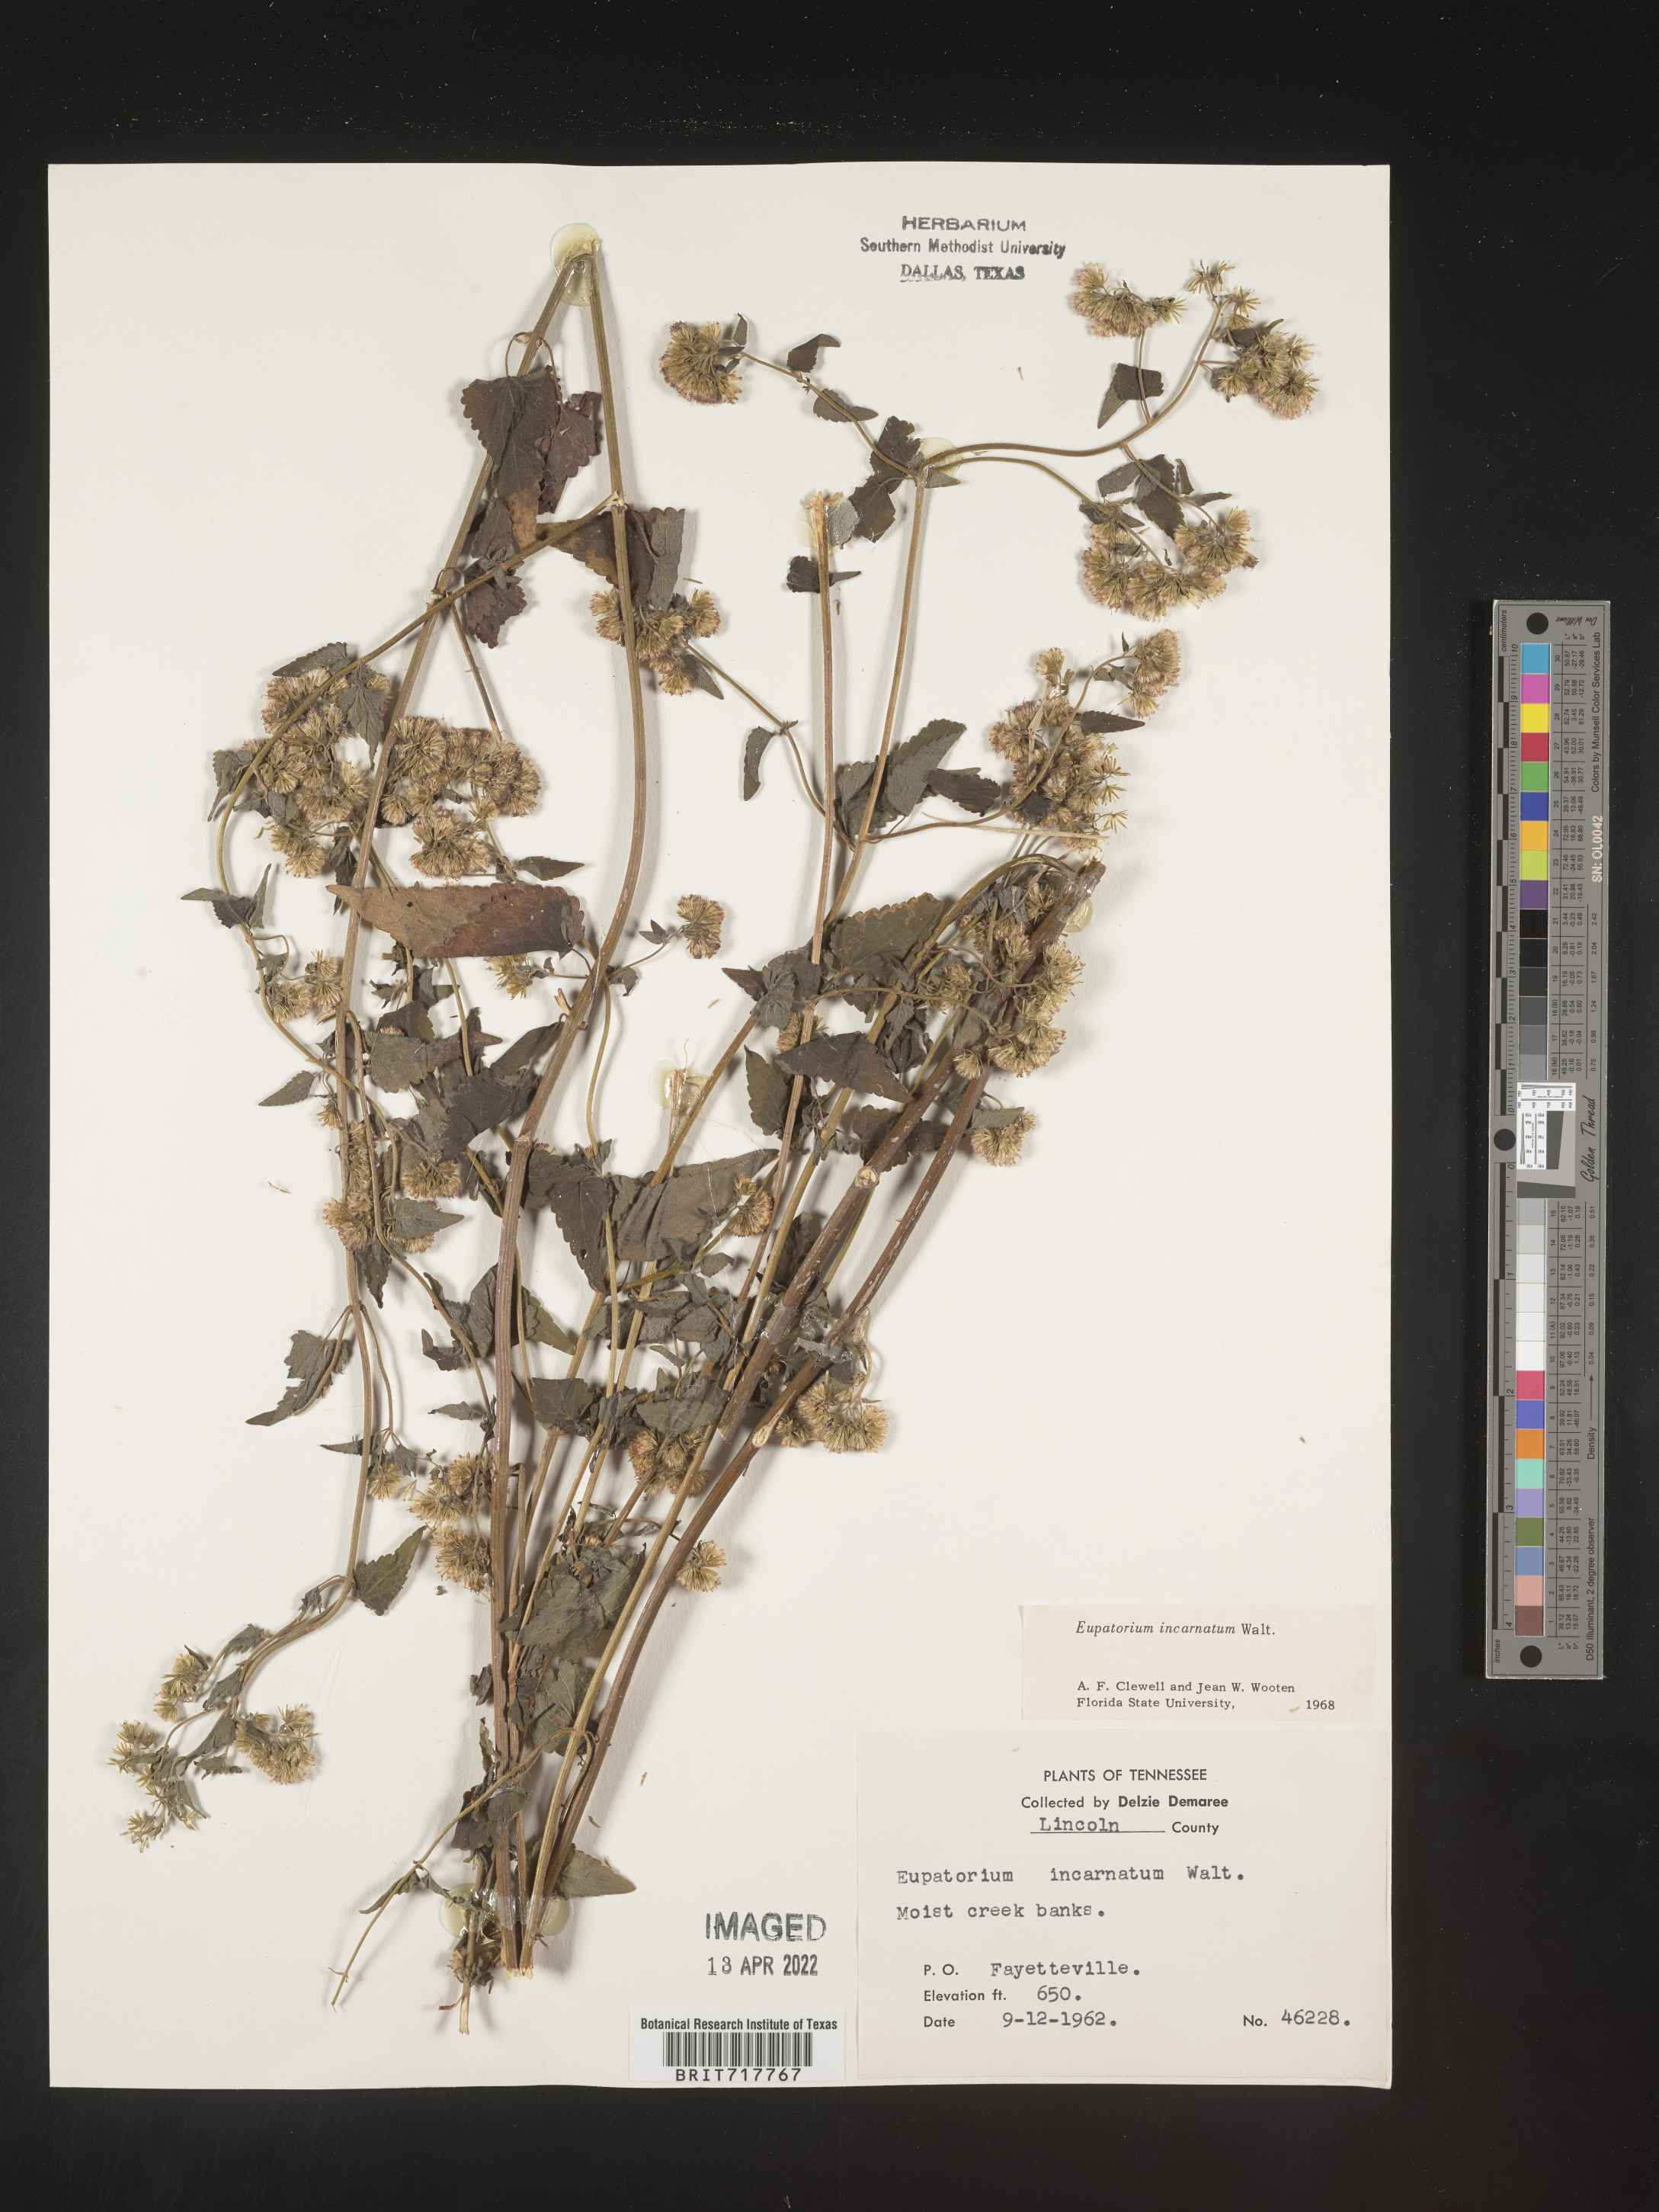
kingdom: Plantae
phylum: Tracheophyta
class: Magnoliopsida
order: Asterales
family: Asteraceae
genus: Fleischmannia
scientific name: Fleischmannia incarnata
